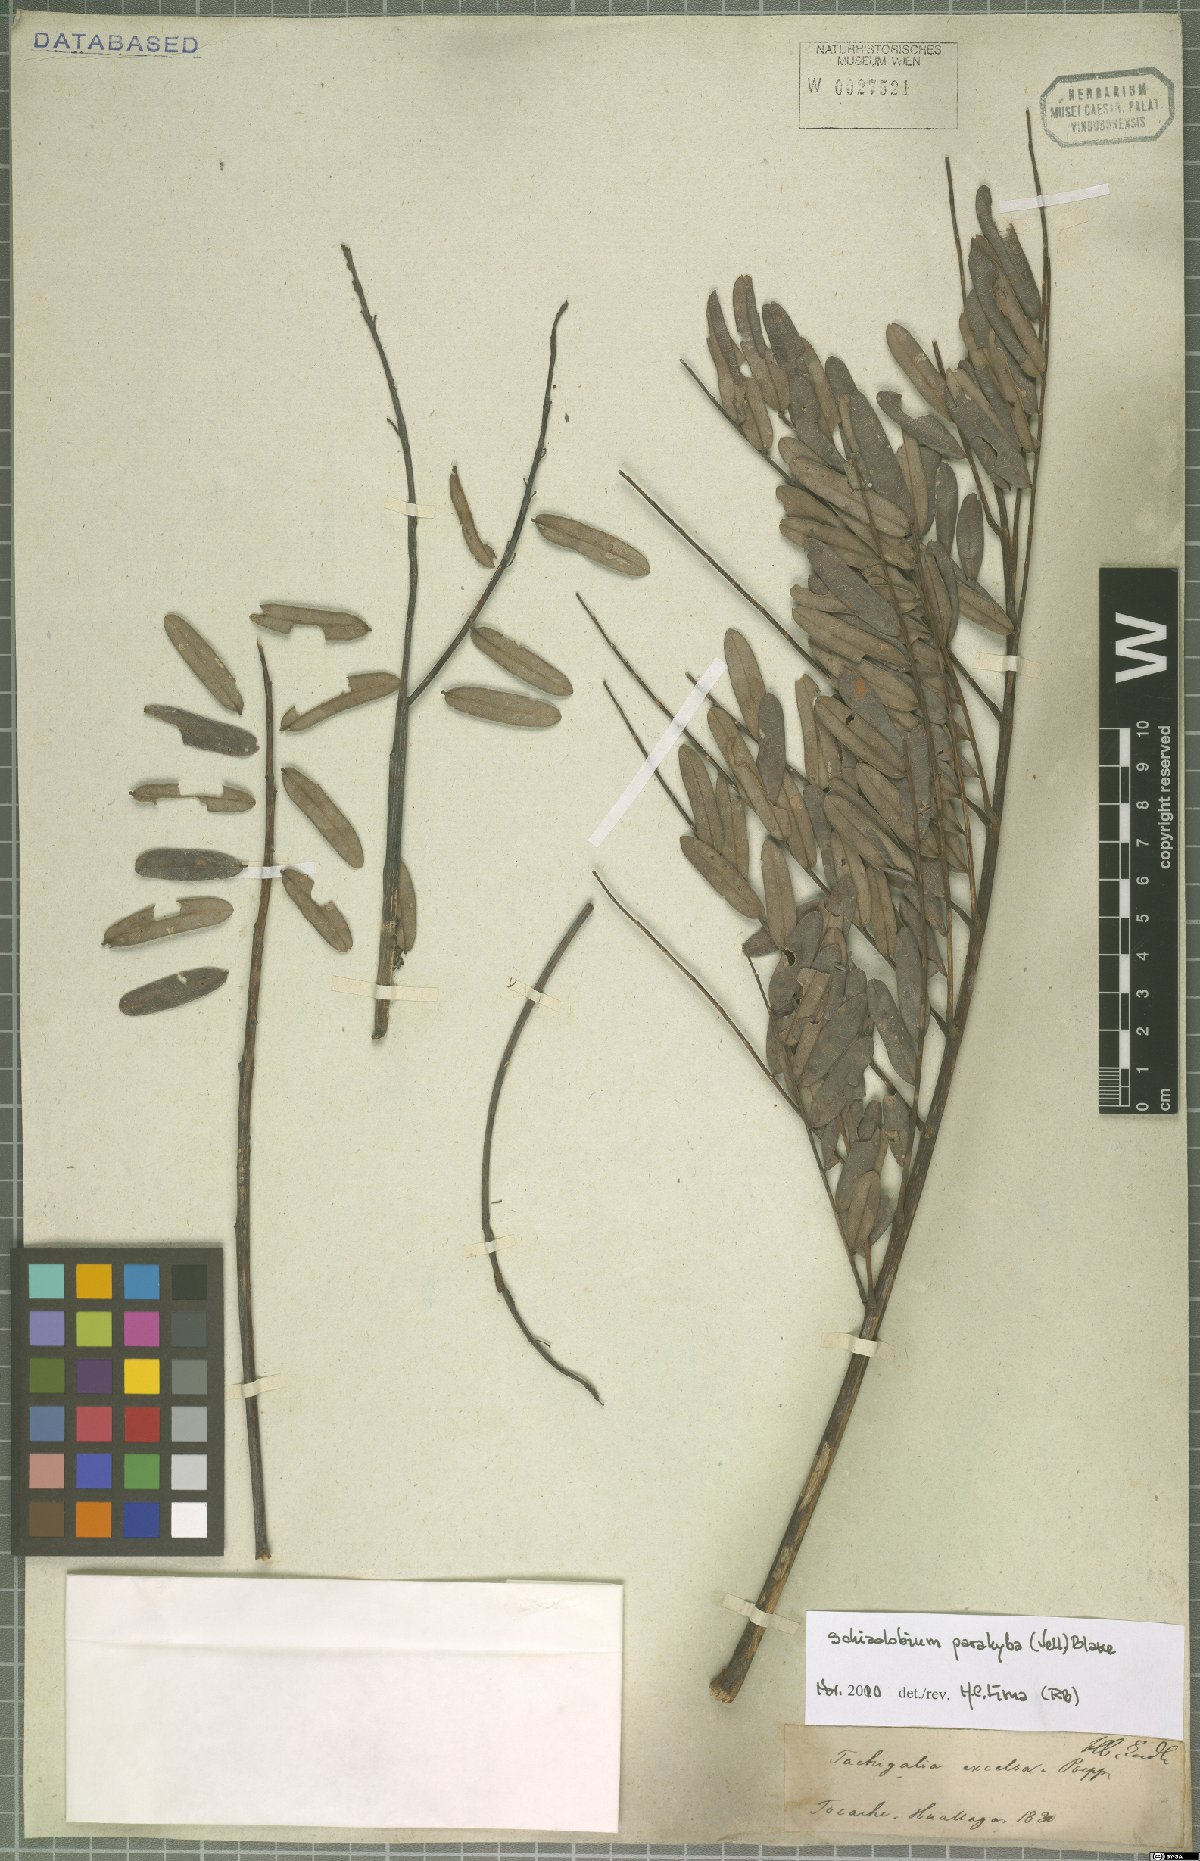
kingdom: Plantae
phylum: Tracheophyta
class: Magnoliopsida
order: Fabales
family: Fabaceae
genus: Schizolobium
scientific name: Schizolobium parahyba
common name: Brazilian firetree
